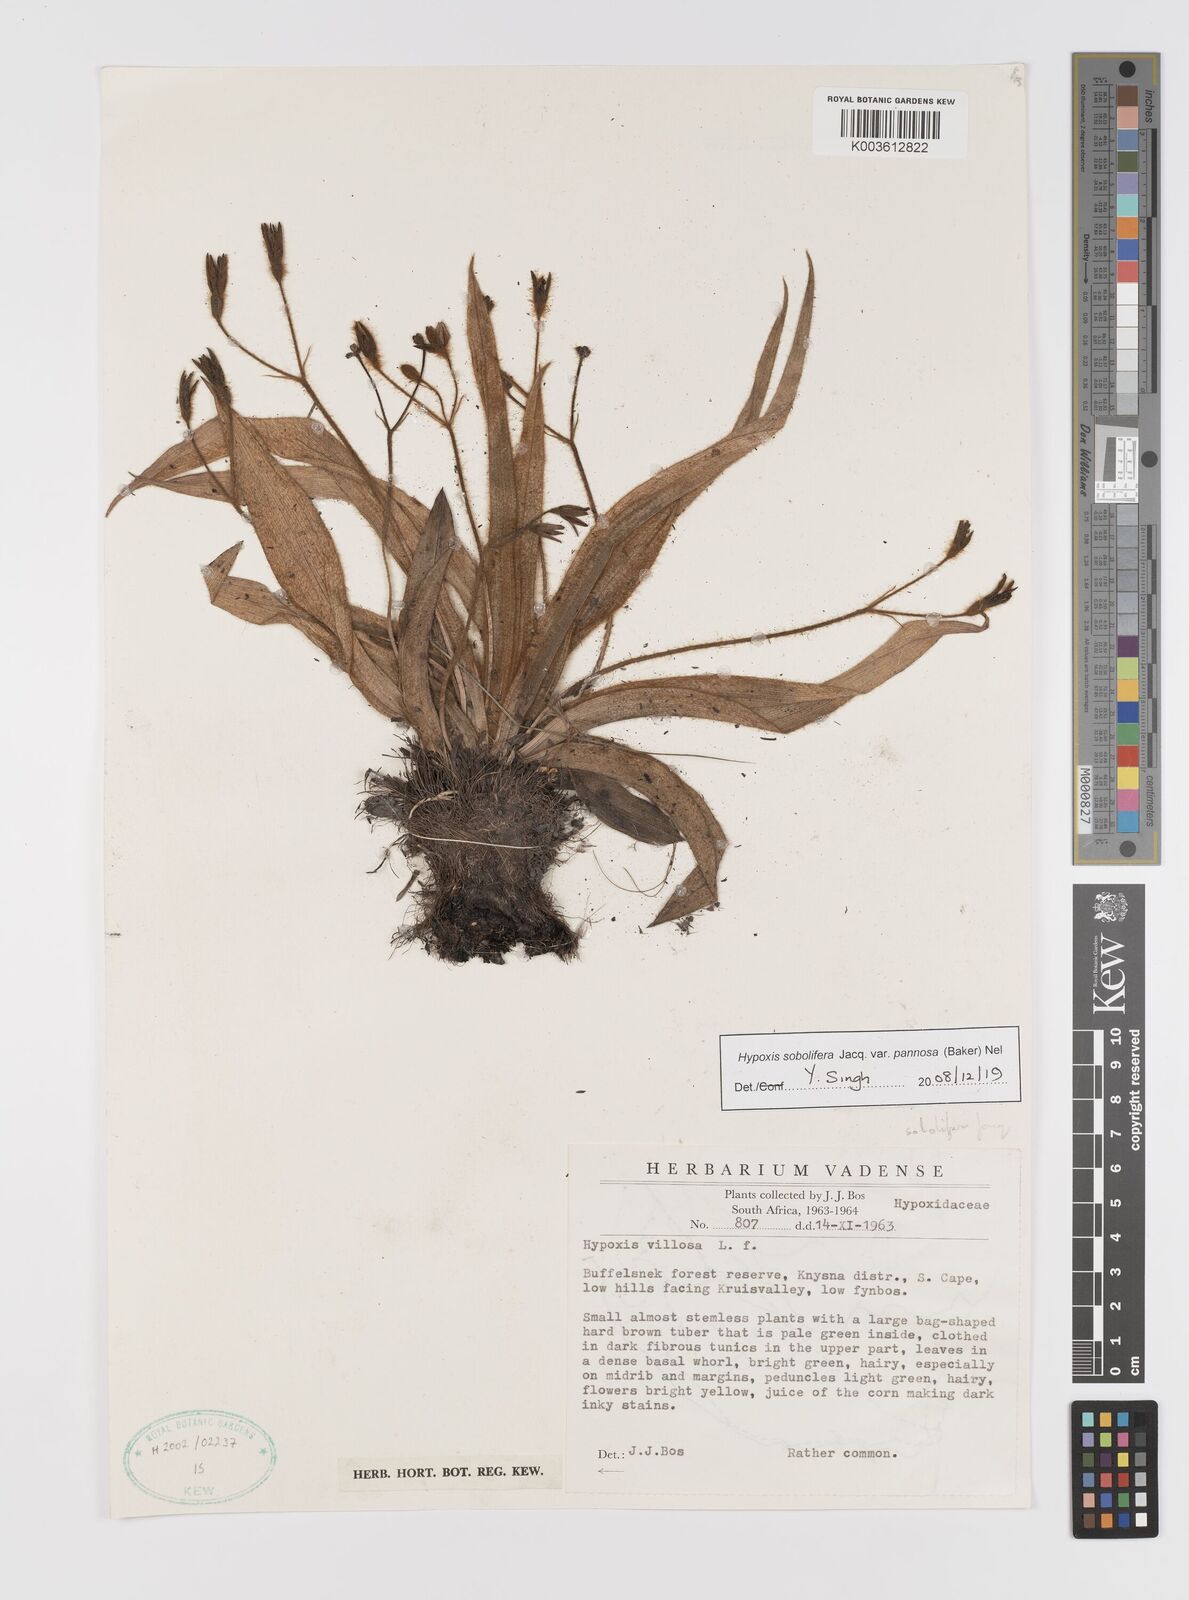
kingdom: Plantae
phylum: Tracheophyta
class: Liliopsida
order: Asparagales
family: Hypoxidaceae
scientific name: Hypoxidaceae
